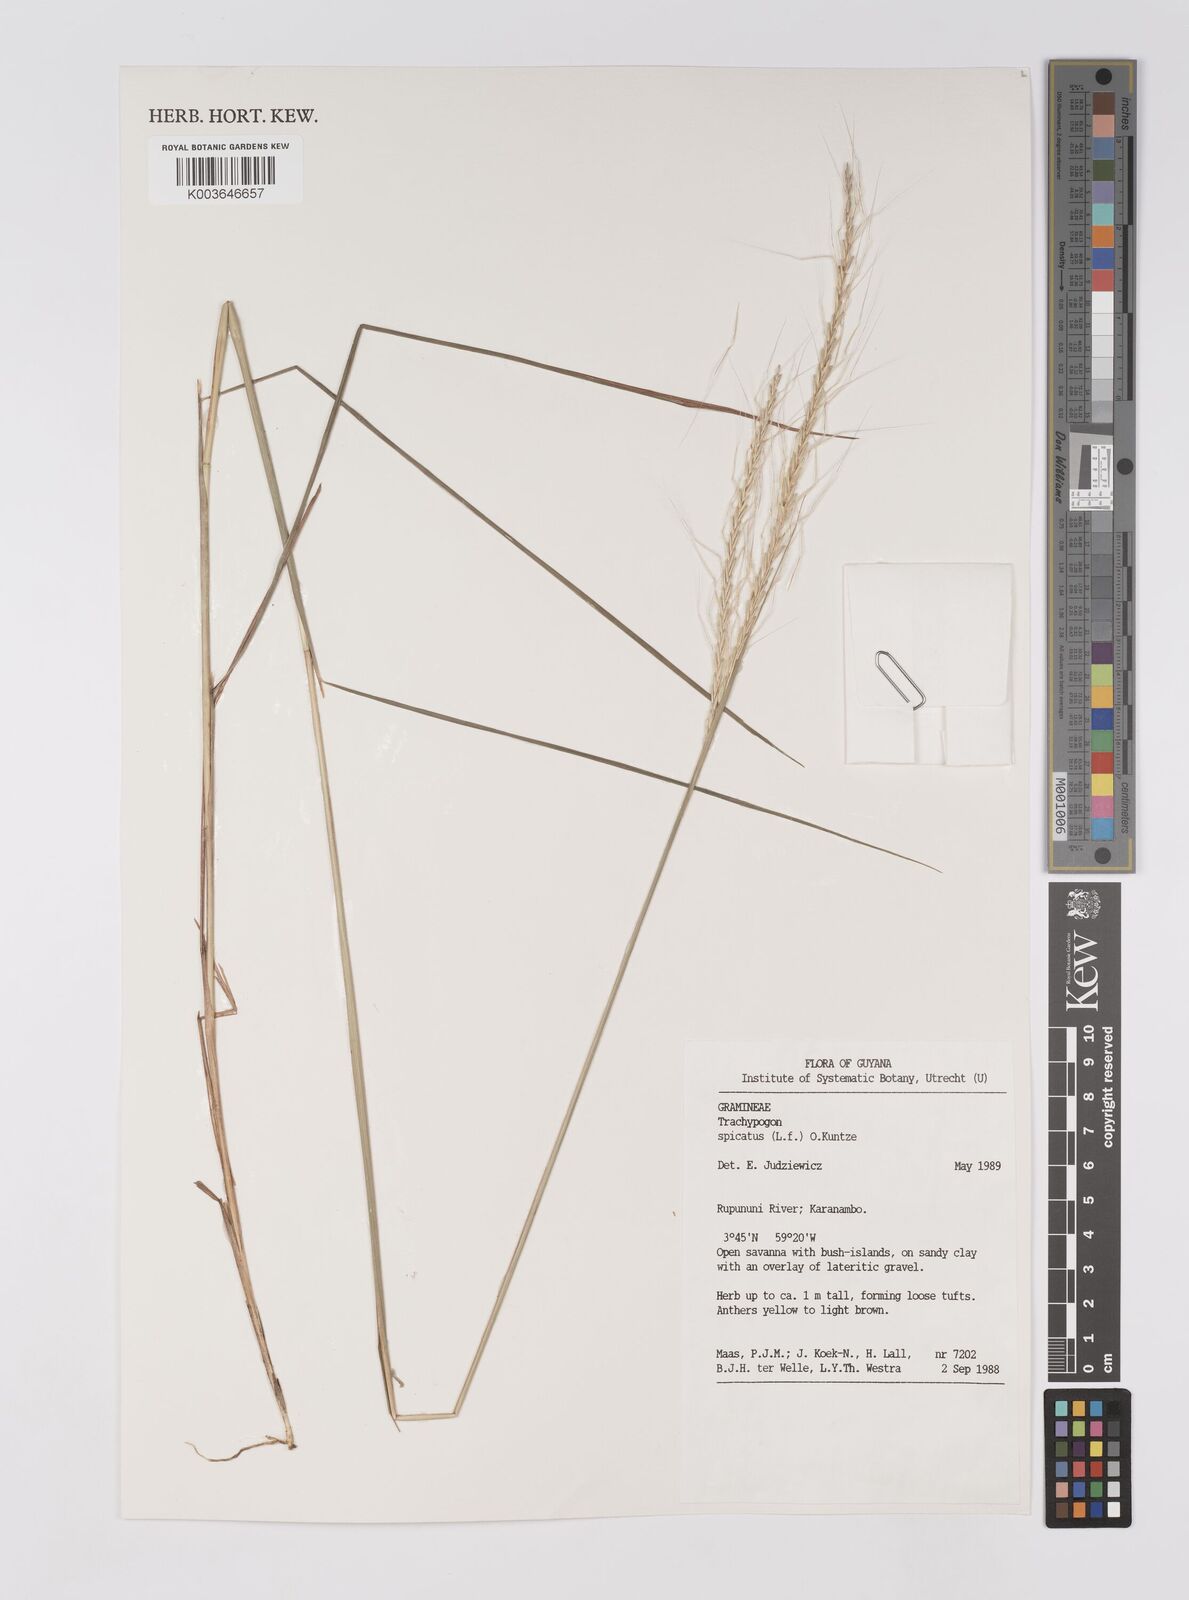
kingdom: Plantae
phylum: Tracheophyta
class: Liliopsida
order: Poales
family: Poaceae
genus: Trachypogon
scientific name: Trachypogon spicatus
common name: Crinkle-awn
